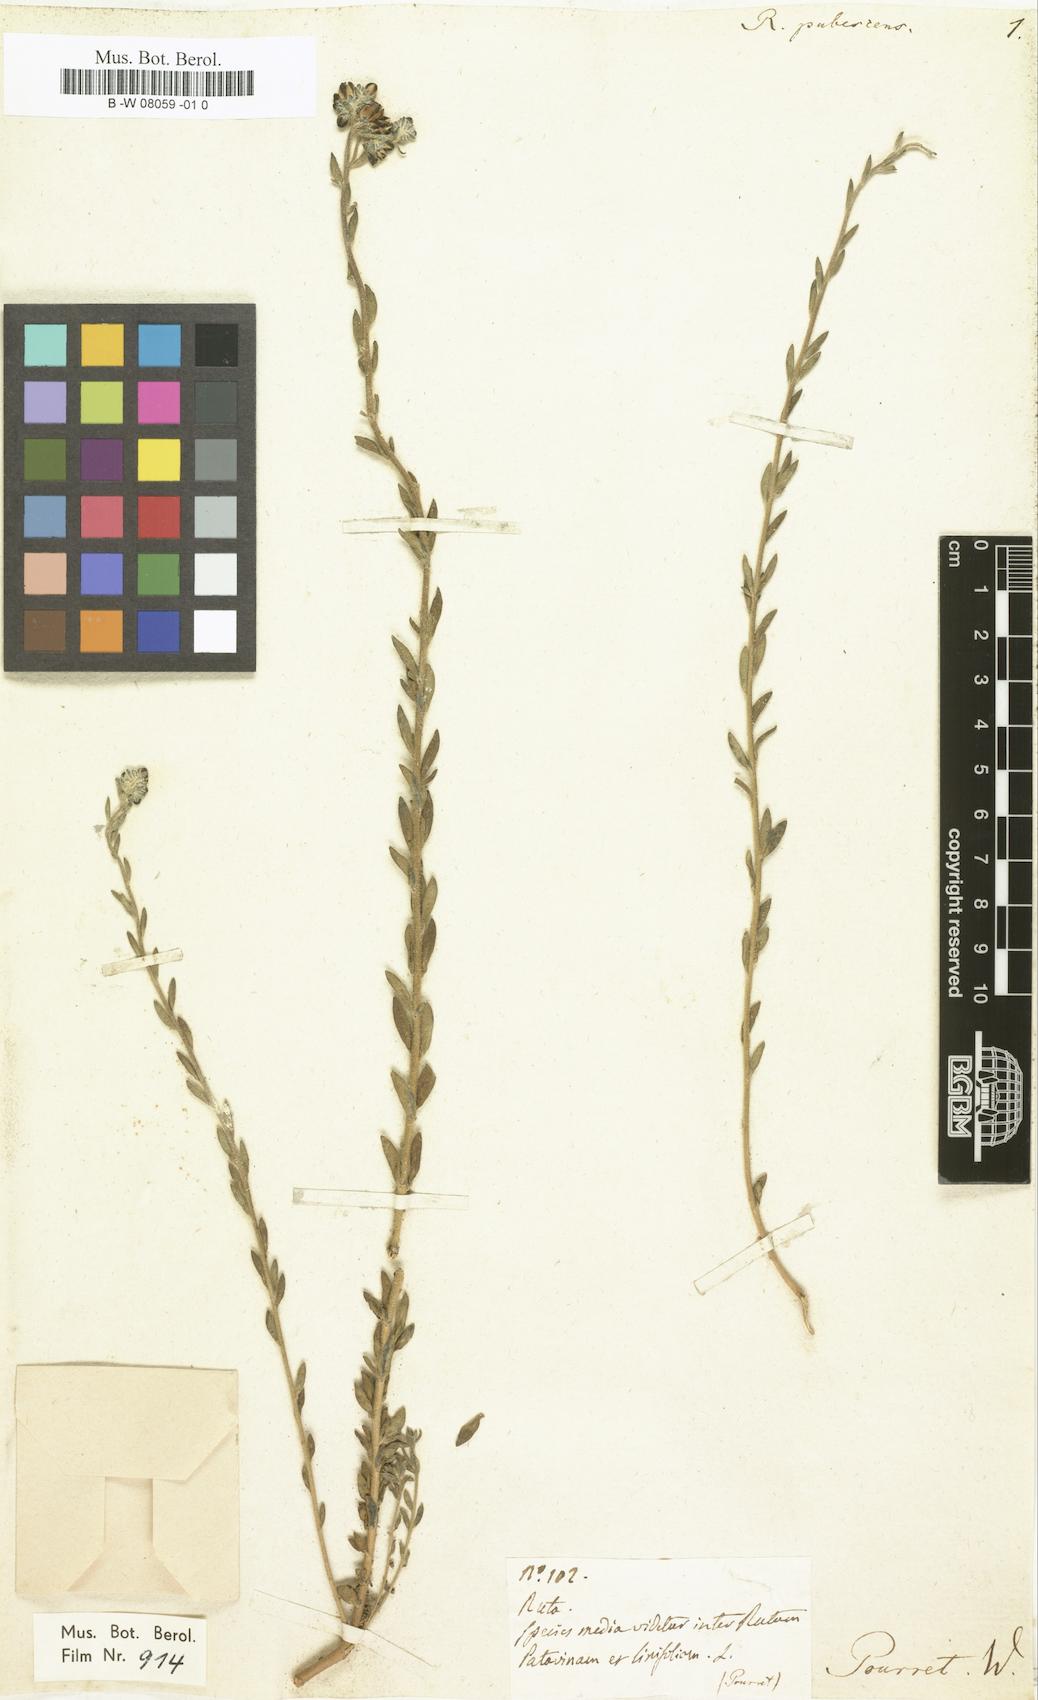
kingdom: Plantae
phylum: Tracheophyta
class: Magnoliopsida
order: Sapindales
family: Rutaceae
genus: Haplophyllum
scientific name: Haplophyllum linifolium
